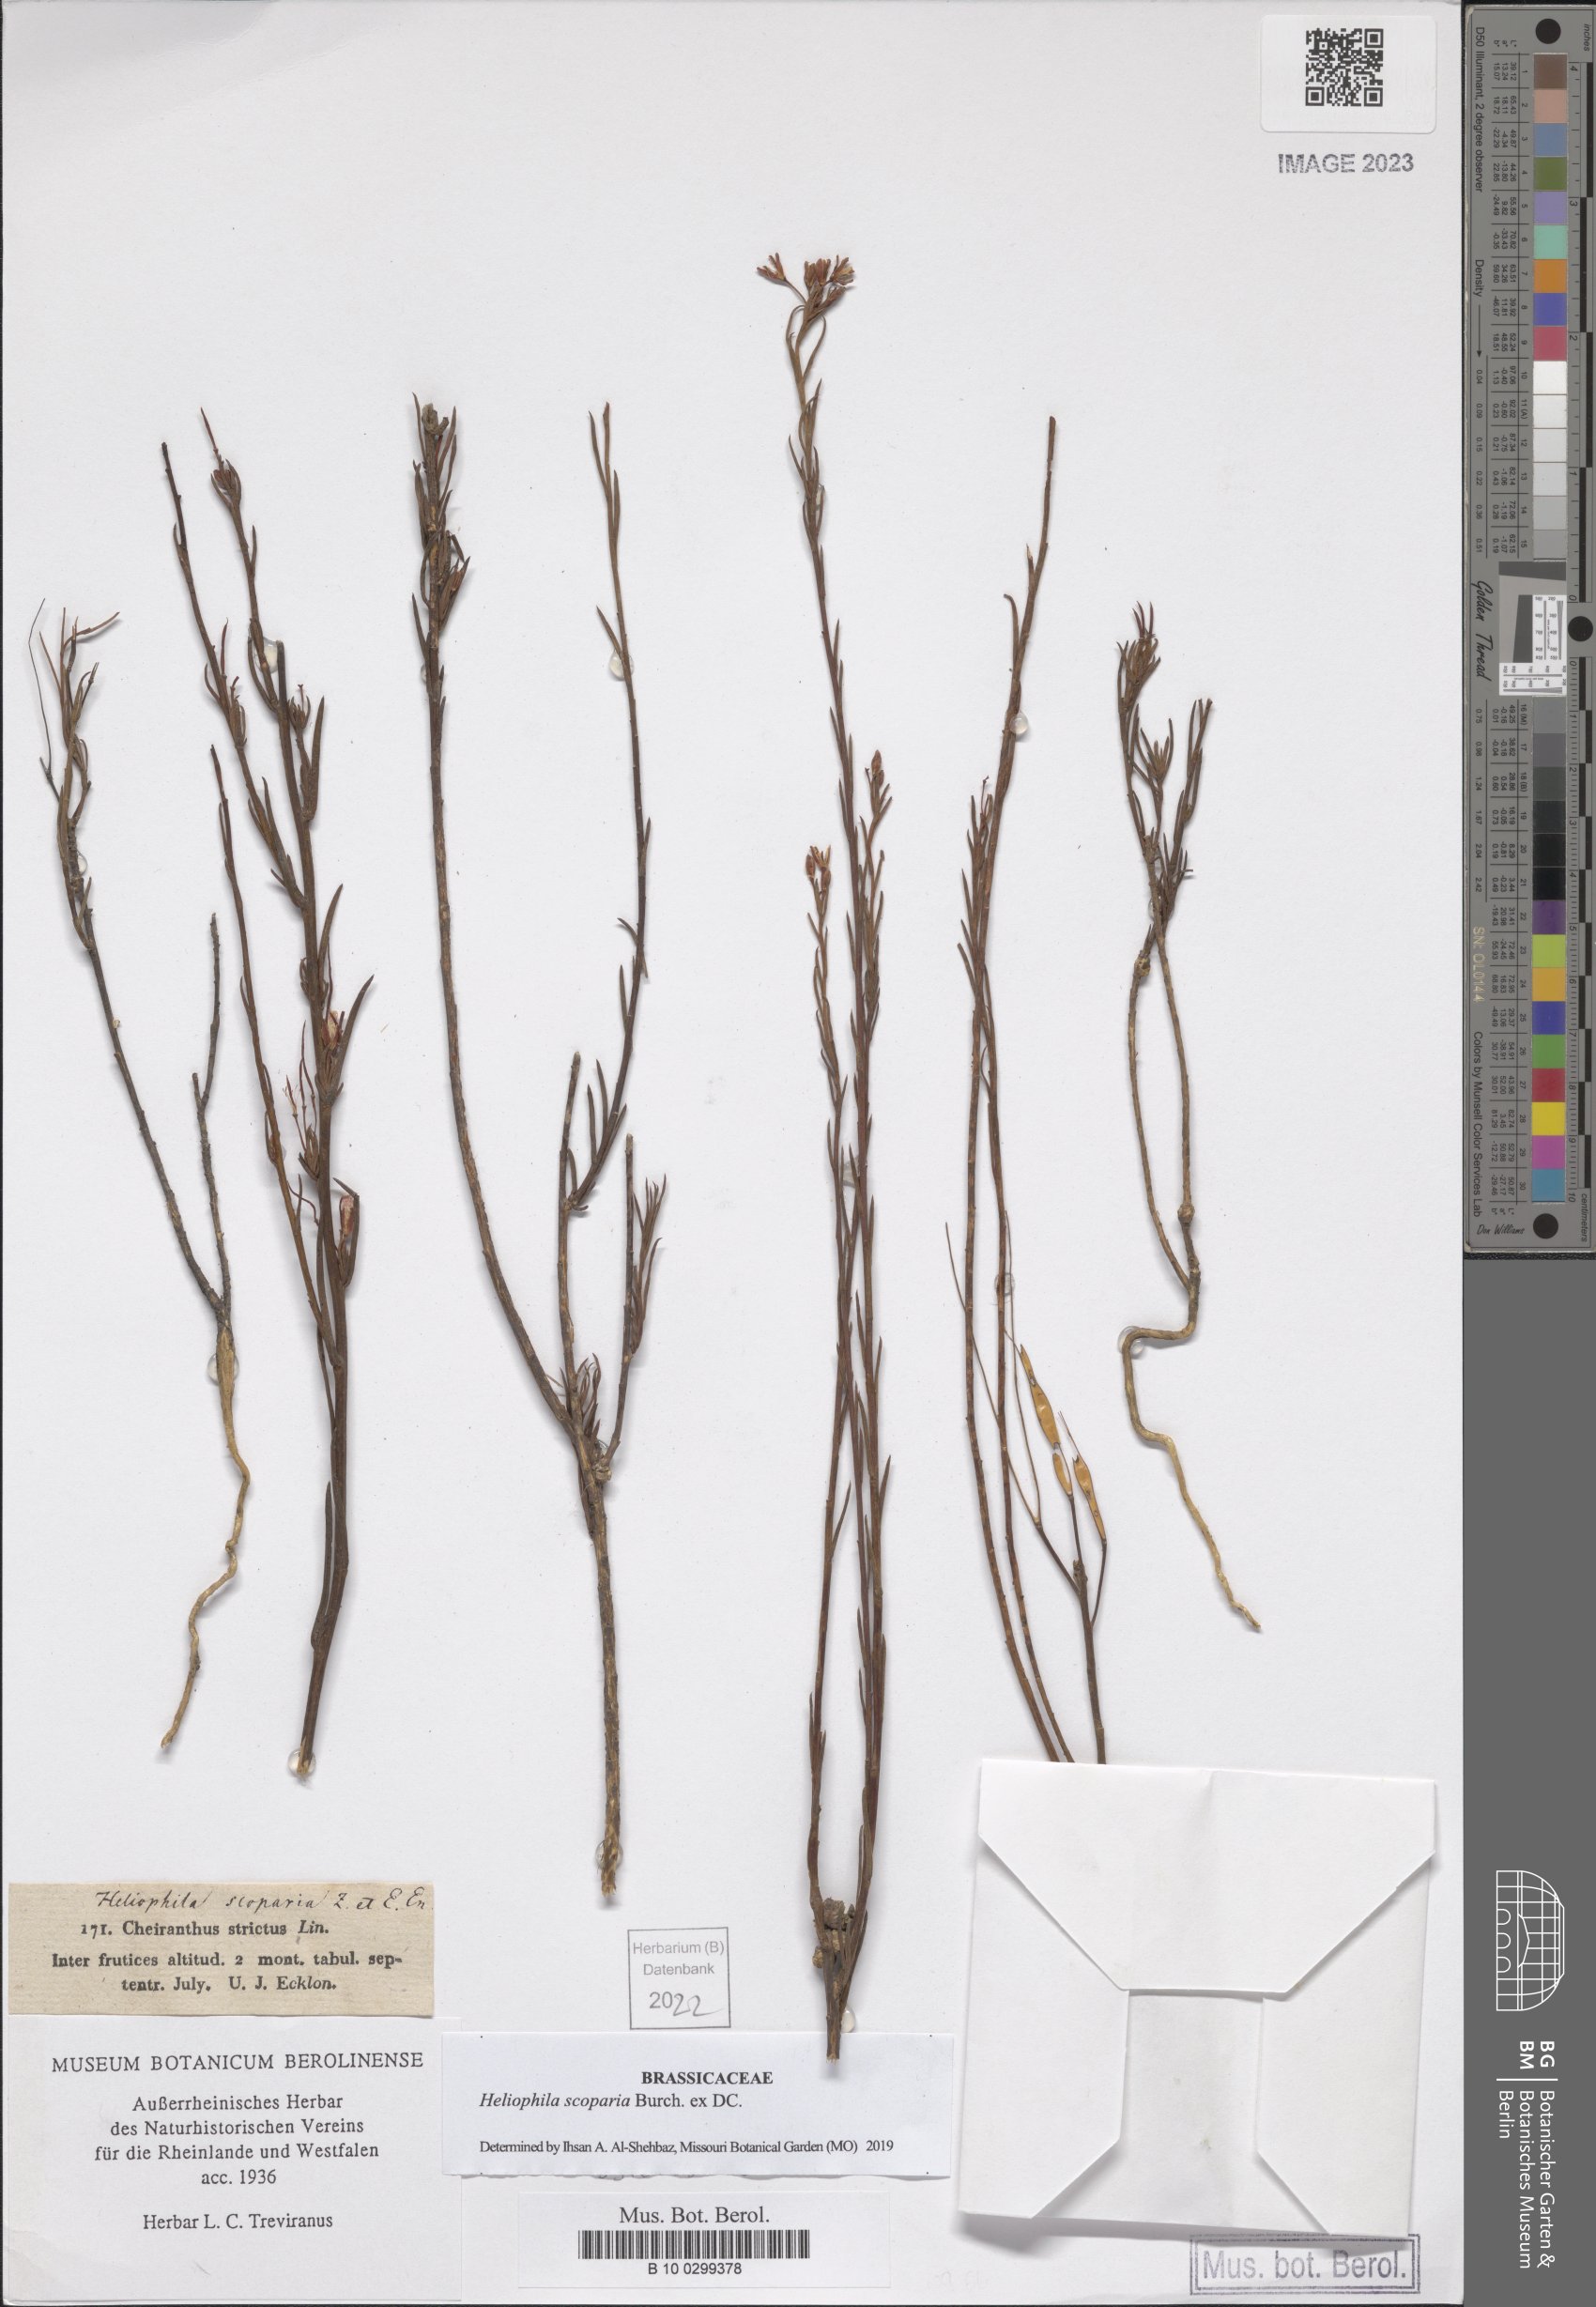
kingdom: Plantae
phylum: Tracheophyta
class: Magnoliopsida
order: Brassicales
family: Brassicaceae
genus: Heliophila
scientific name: Heliophila scoparia
